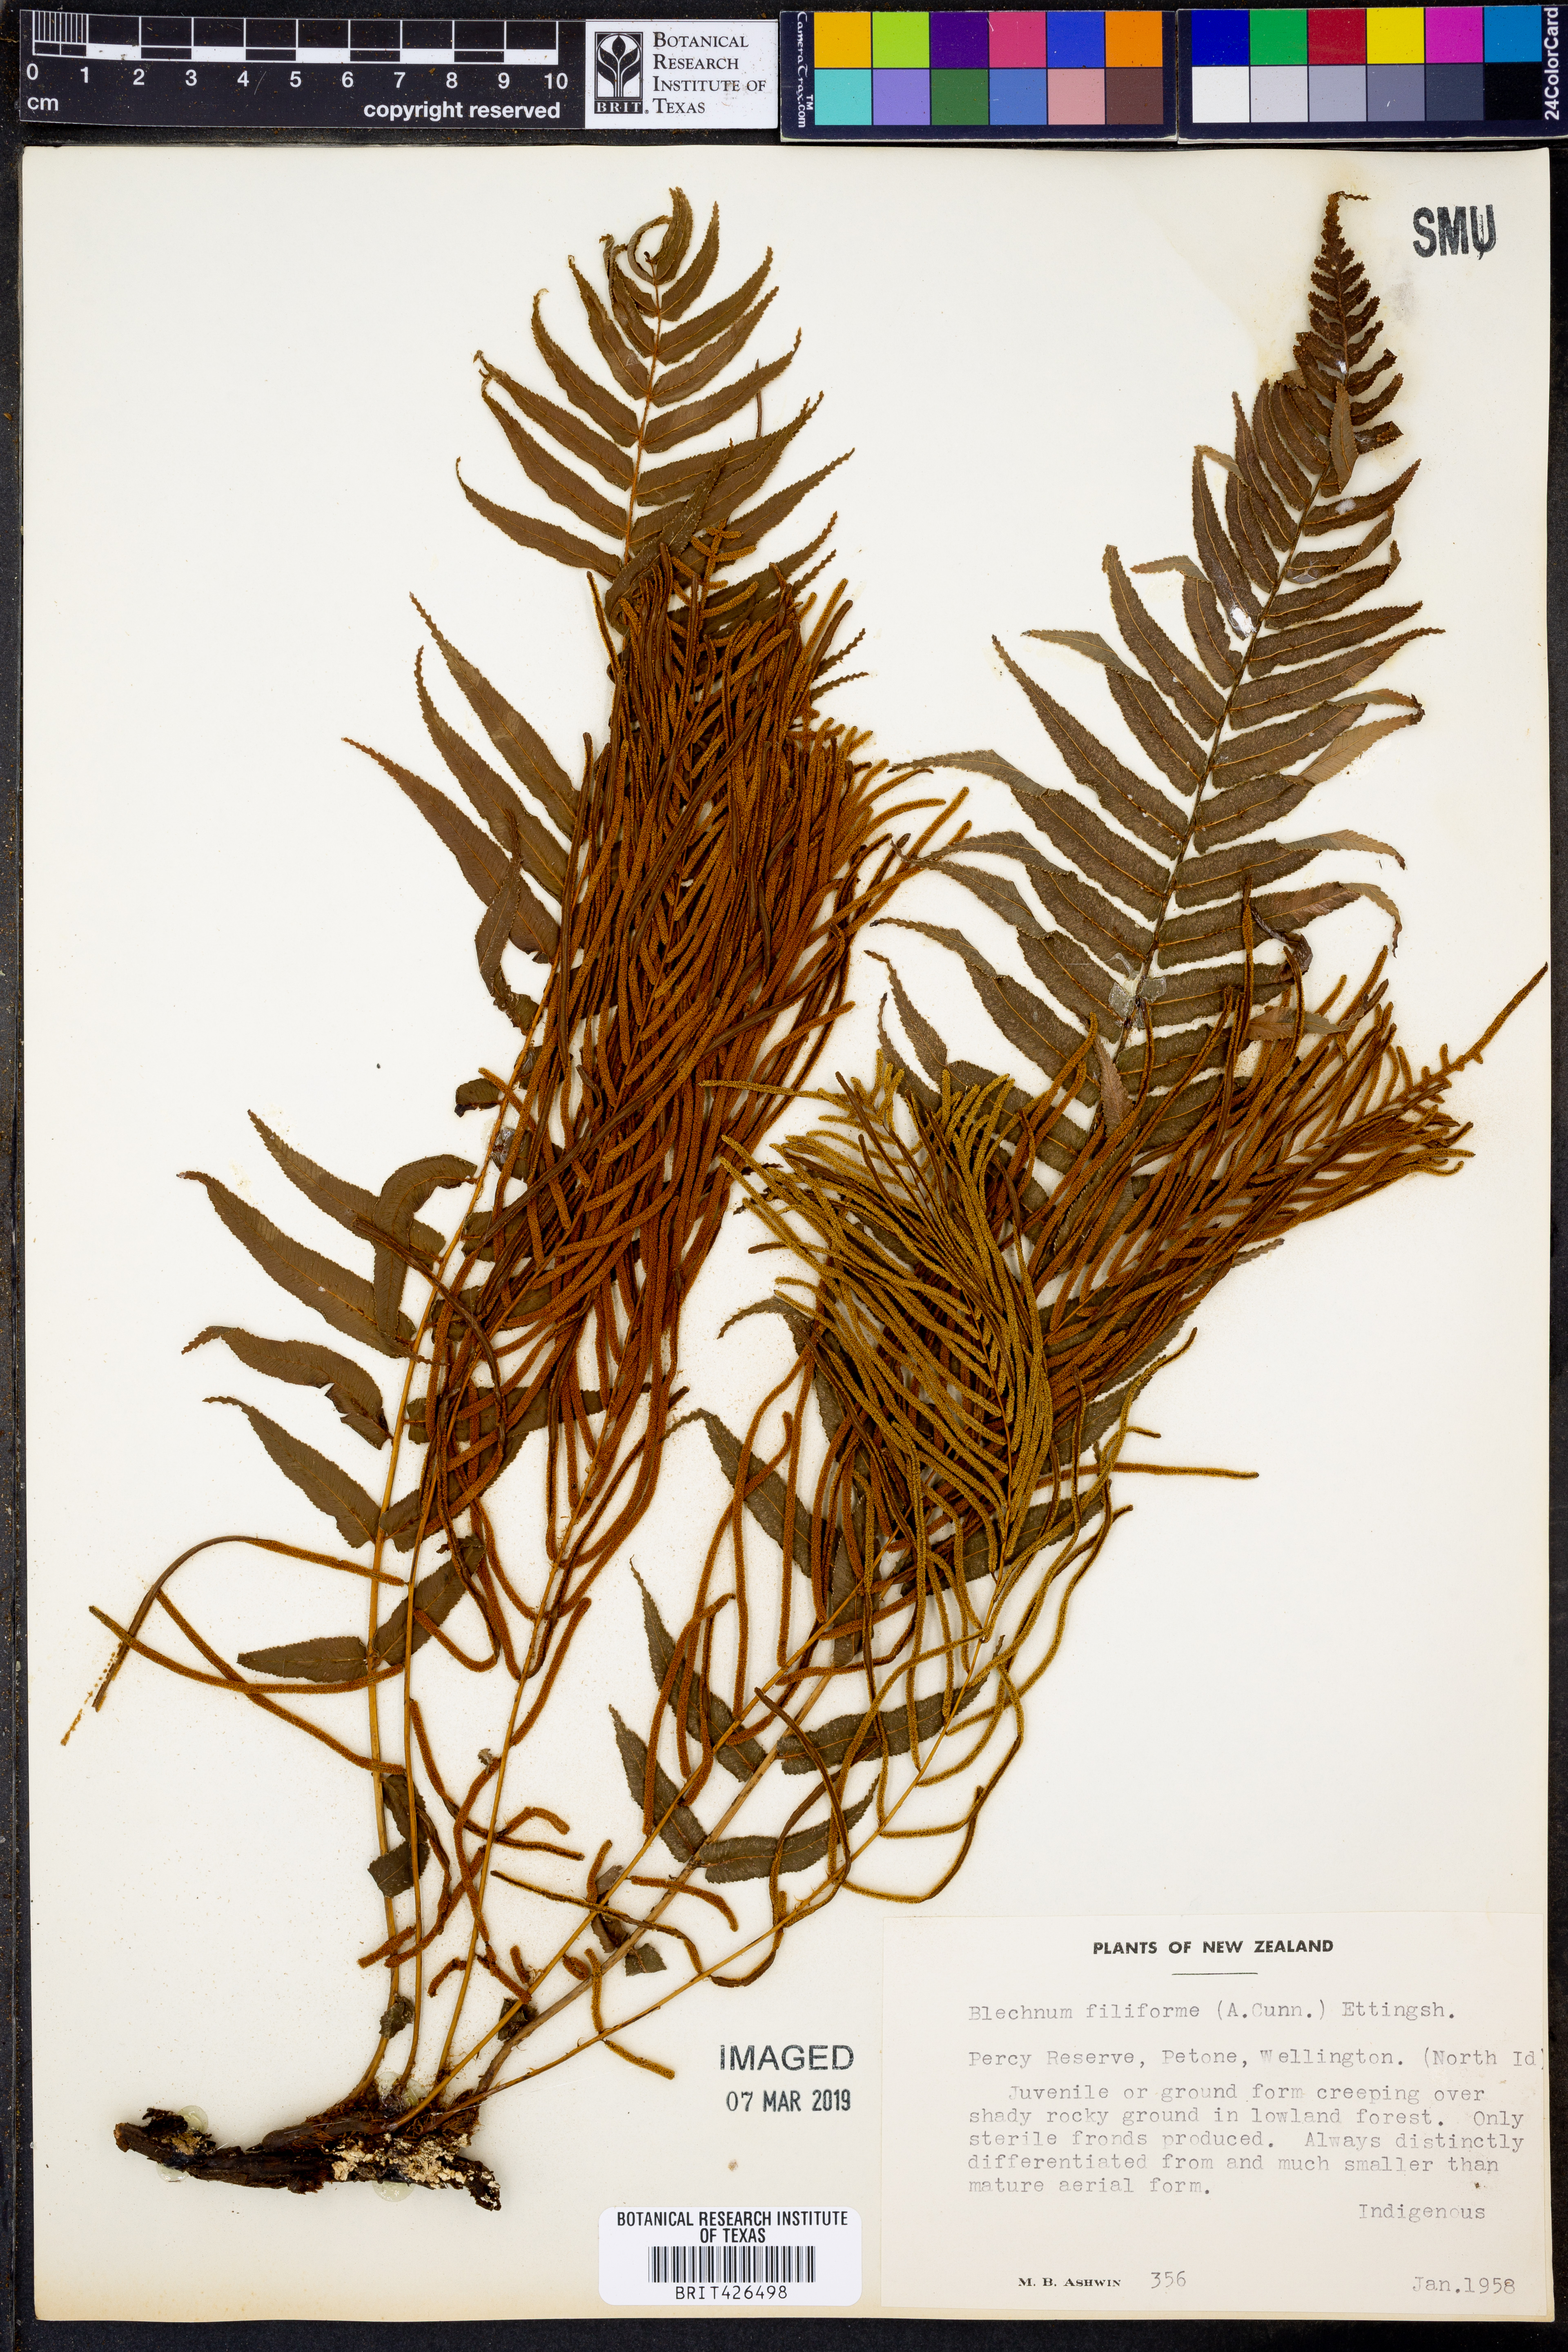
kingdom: Plantae
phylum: Tracheophyta
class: Polypodiopsida
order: Polypodiales
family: Blechnaceae
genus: Icarus
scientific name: Icarus filiformis
